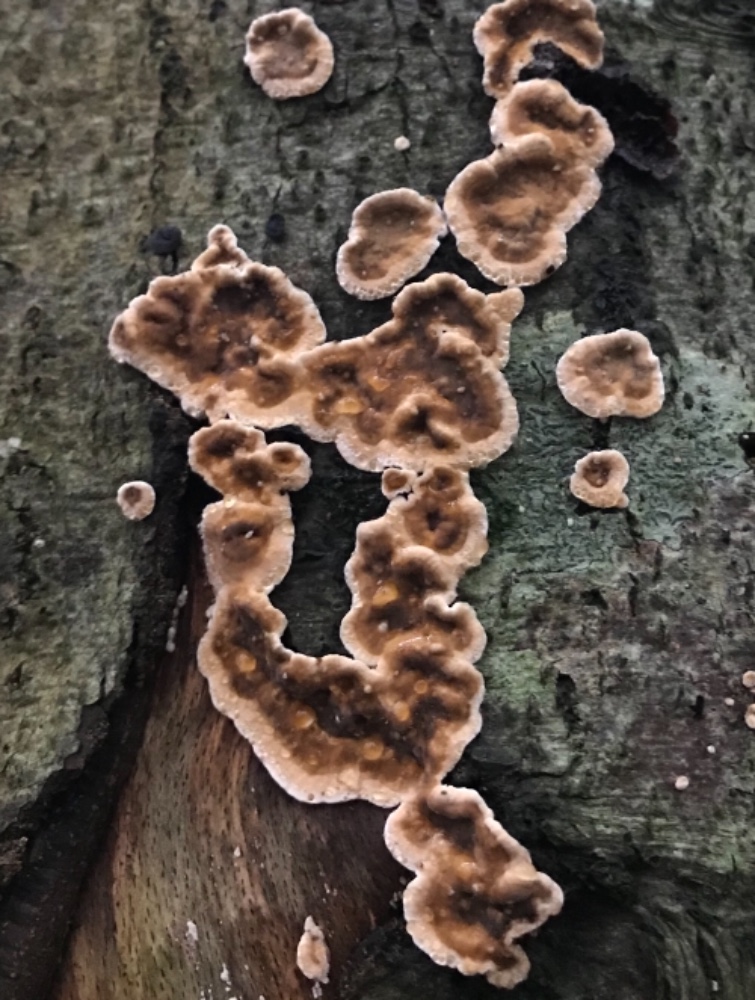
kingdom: Fungi
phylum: Basidiomycota
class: Agaricomycetes
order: Russulales
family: Stereaceae
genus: Stereum
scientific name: Stereum rugosum
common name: rynket lædersvamp
